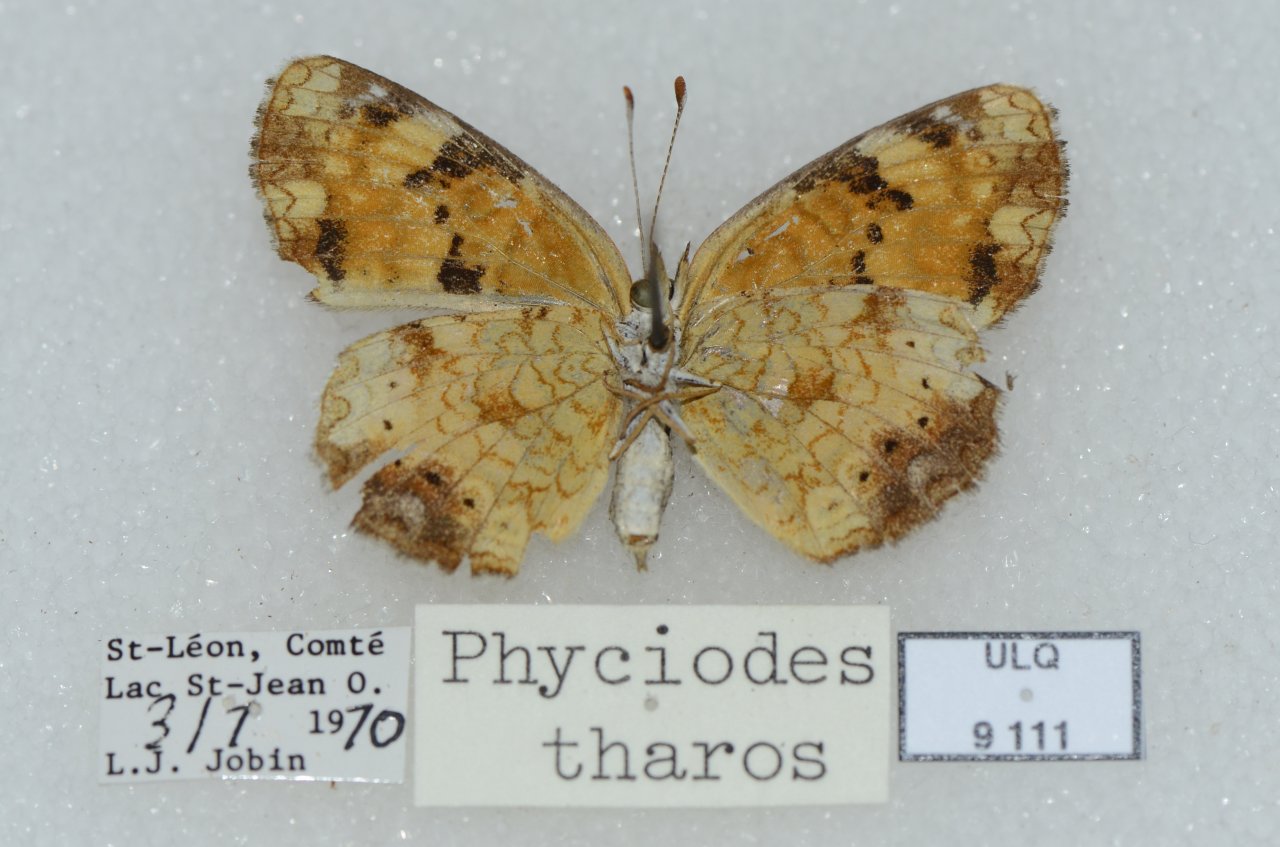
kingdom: Animalia
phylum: Arthropoda
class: Insecta
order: Lepidoptera
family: Nymphalidae
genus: Phyciodes
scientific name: Phyciodes tharos
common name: Northern Crescent
